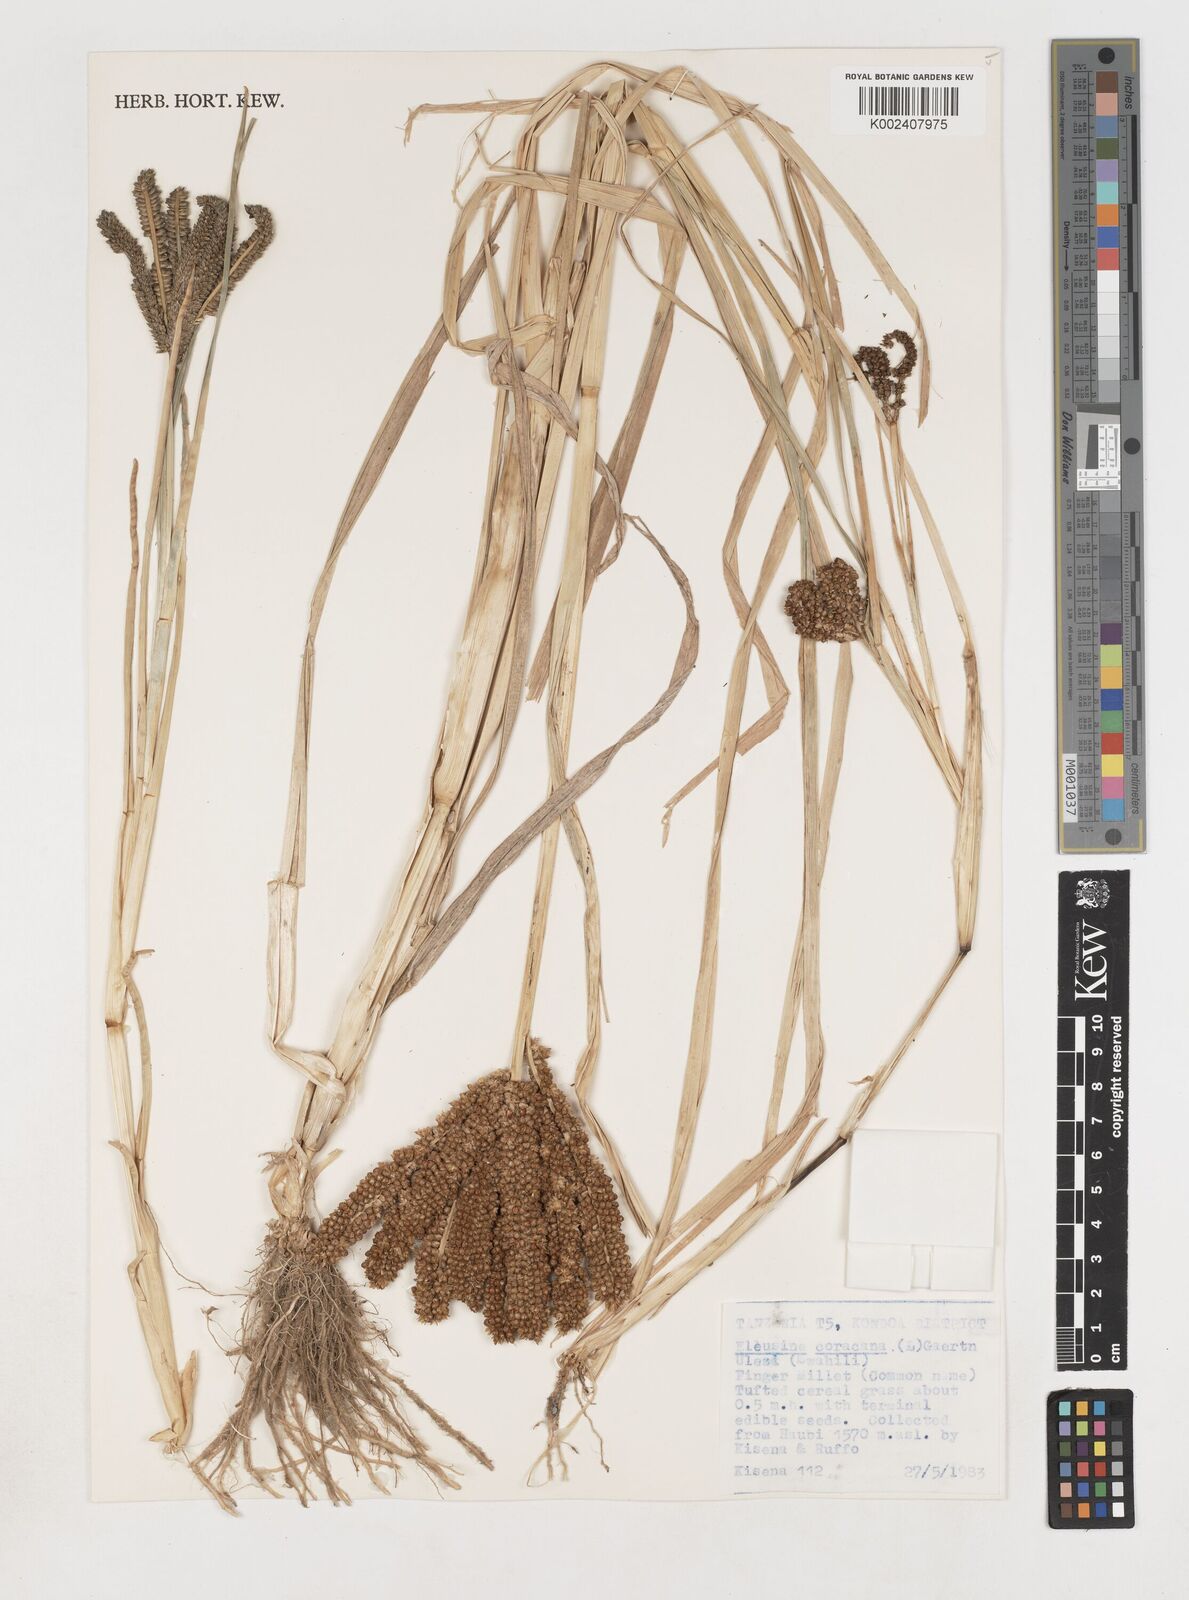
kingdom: Plantae
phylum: Tracheophyta
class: Liliopsida
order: Poales
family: Poaceae
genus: Eleusine
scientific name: Eleusine coracana
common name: Finger millet
